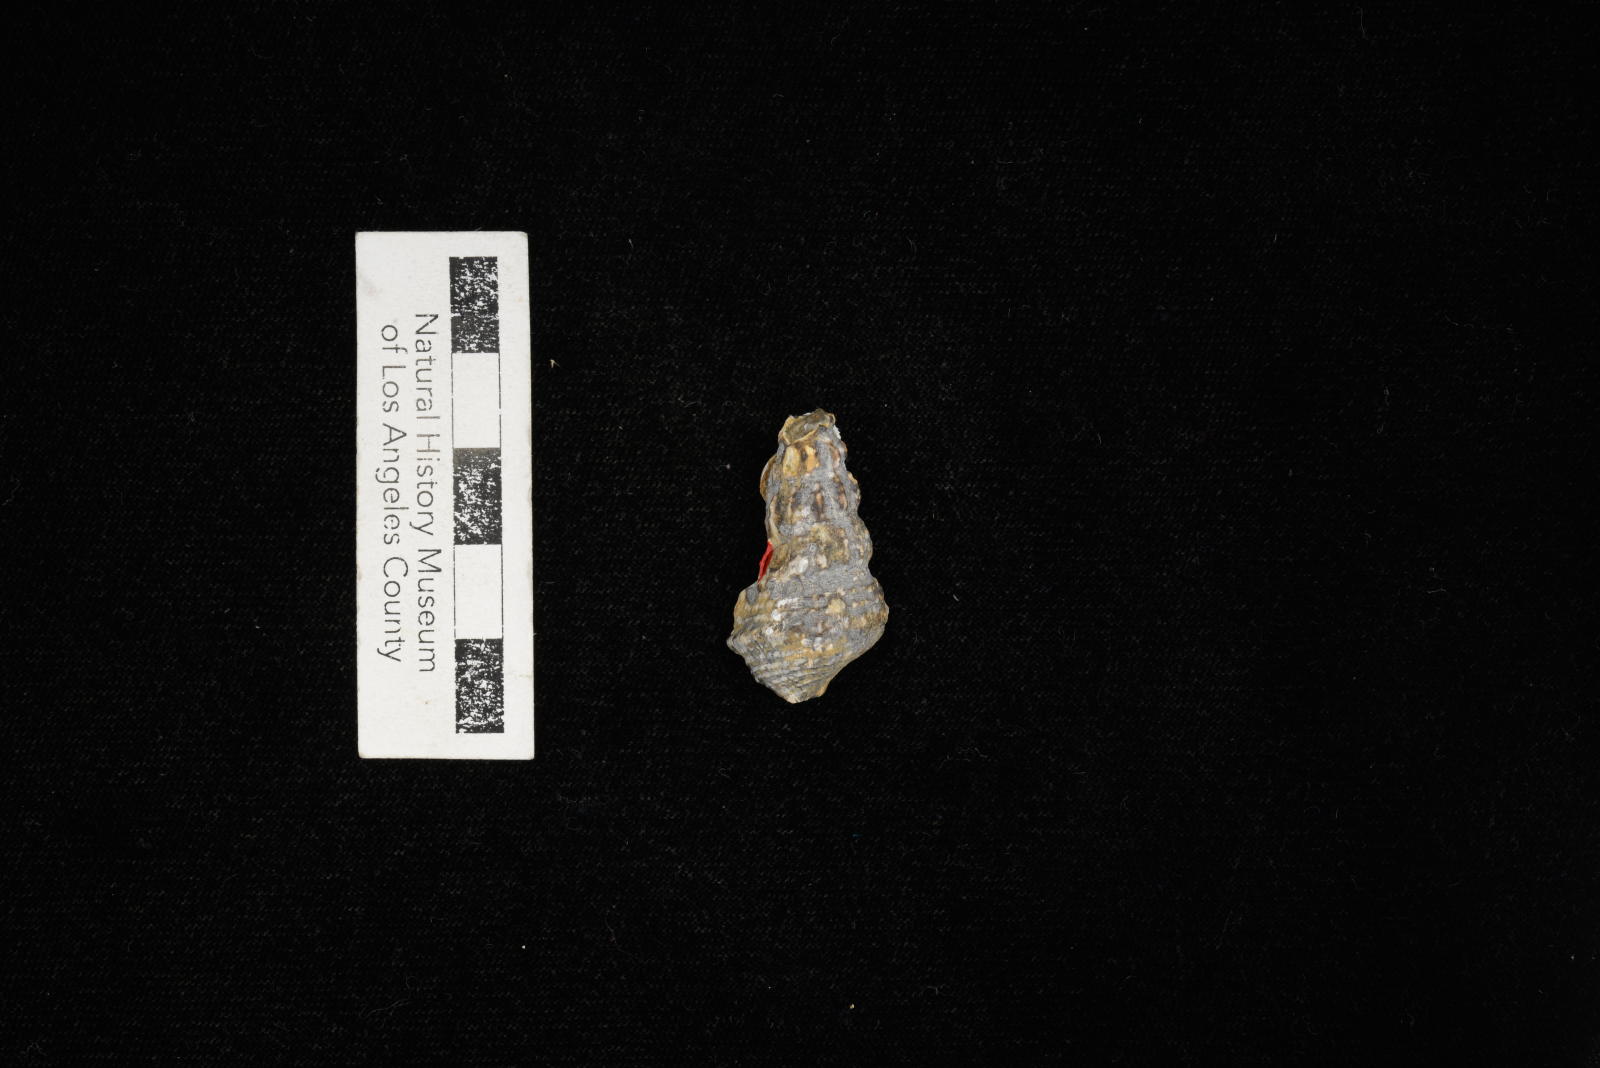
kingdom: Animalia
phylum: Mollusca
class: Gastropoda
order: Littorinimorpha
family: Aporrhaidae
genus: Anchura
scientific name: Anchura halberdopsis
